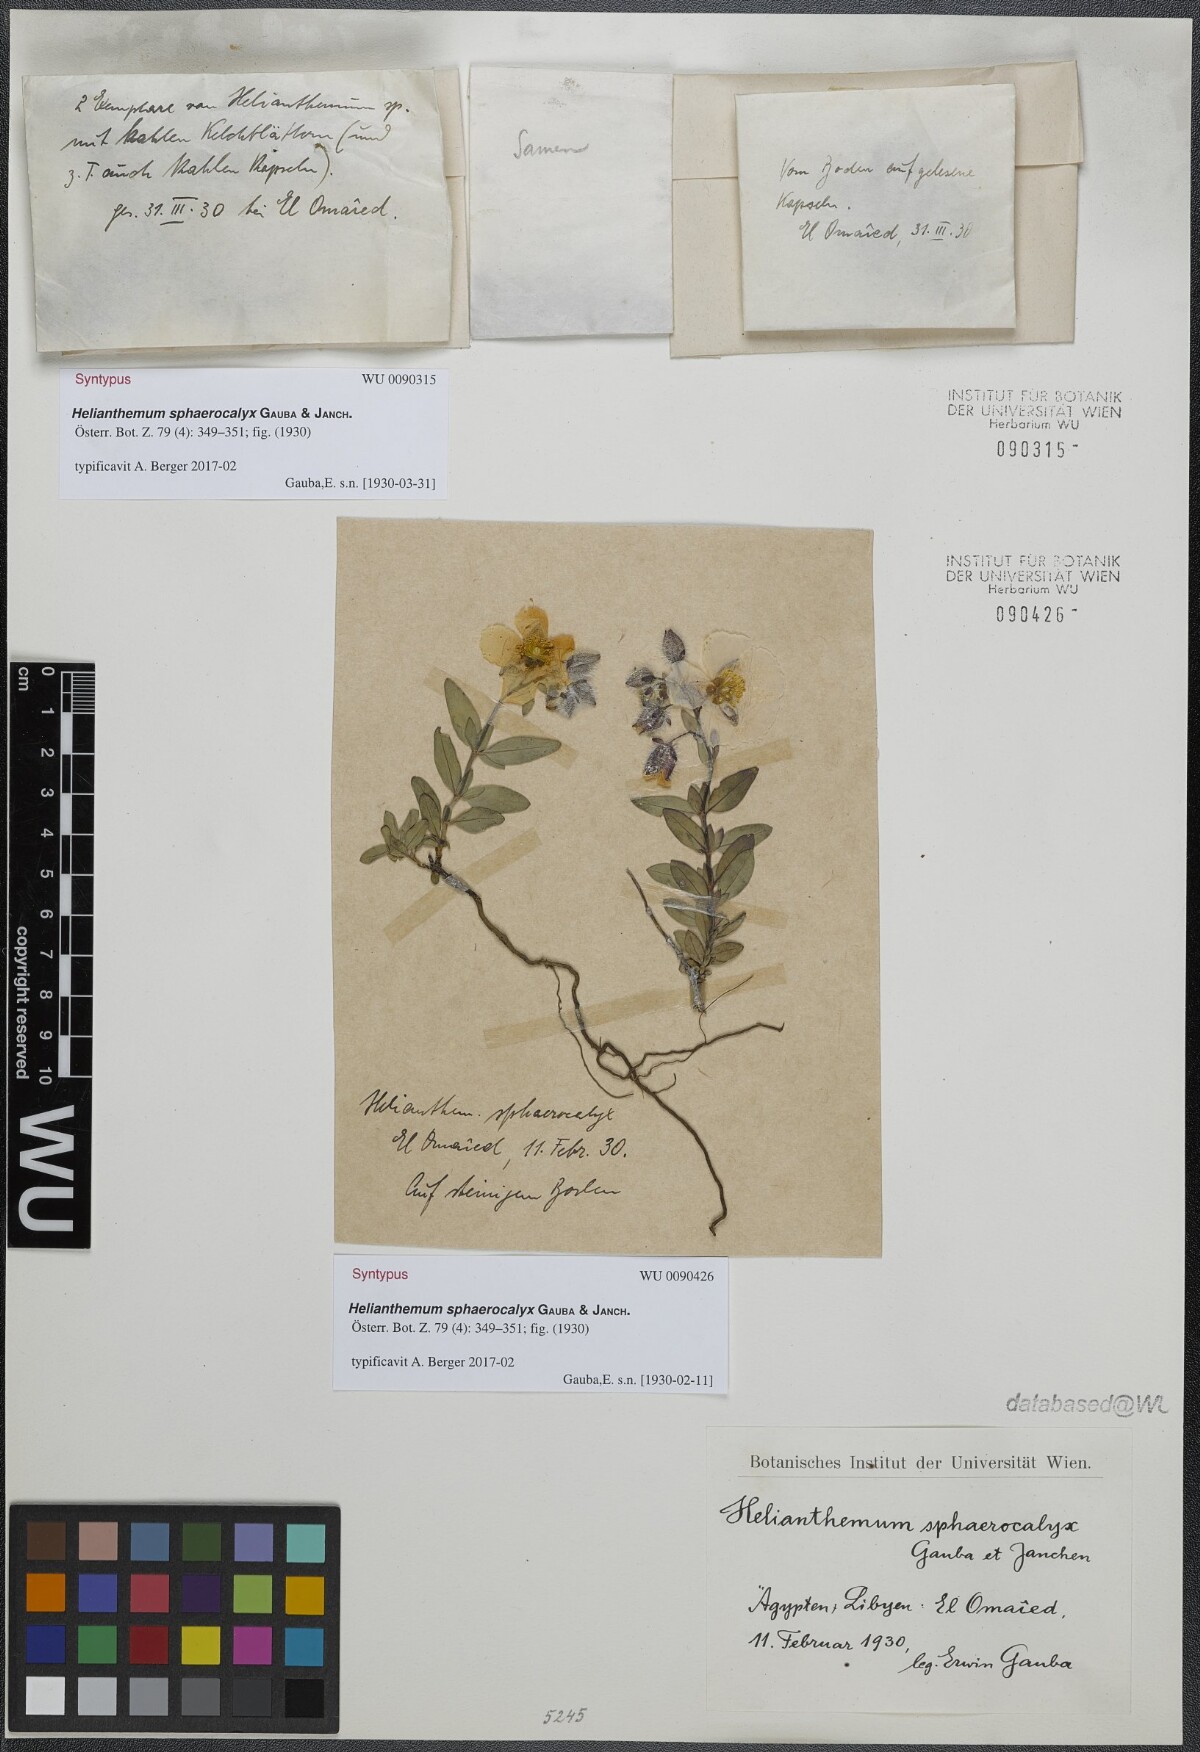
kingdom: Plantae
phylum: Tracheophyta
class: Magnoliopsida
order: Malvales
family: Cistaceae
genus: Helianthemum
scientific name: Helianthemum crassifolium
